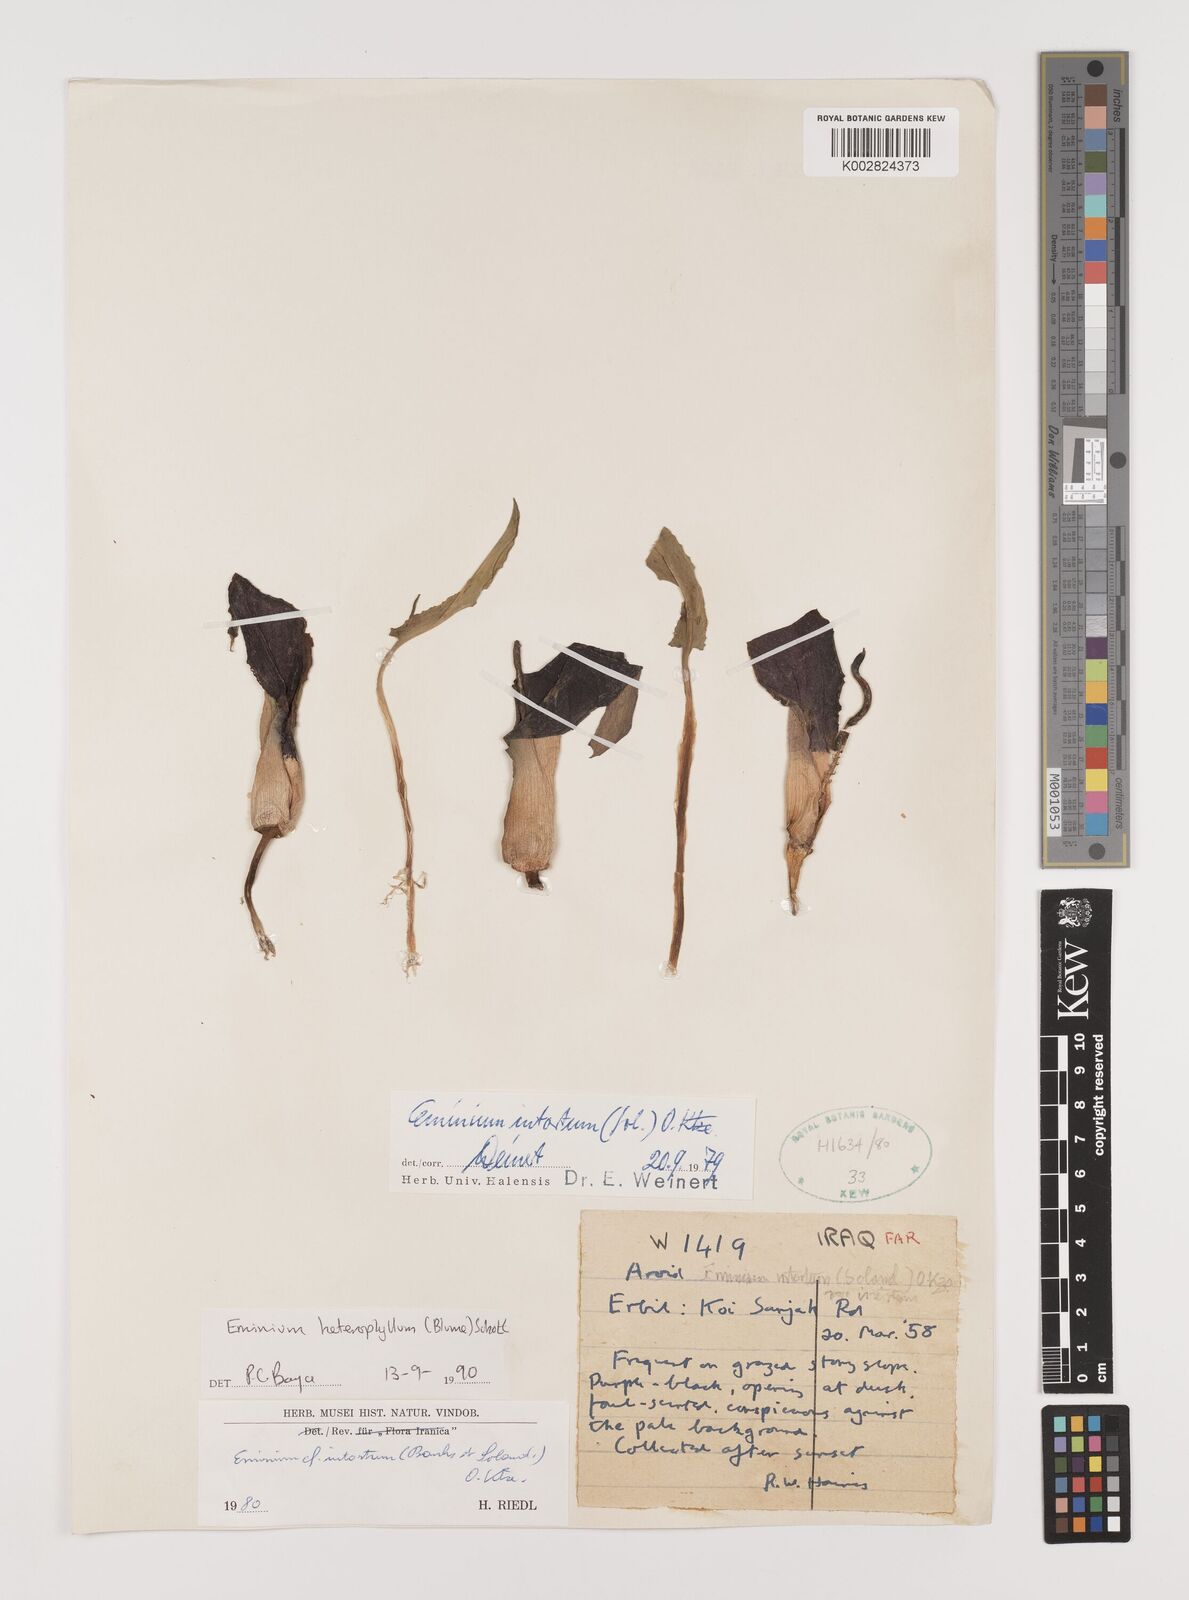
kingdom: Plantae
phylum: Tracheophyta
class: Liliopsida
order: Alismatales
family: Araceae
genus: Eminium
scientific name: Eminium rauwolffii
